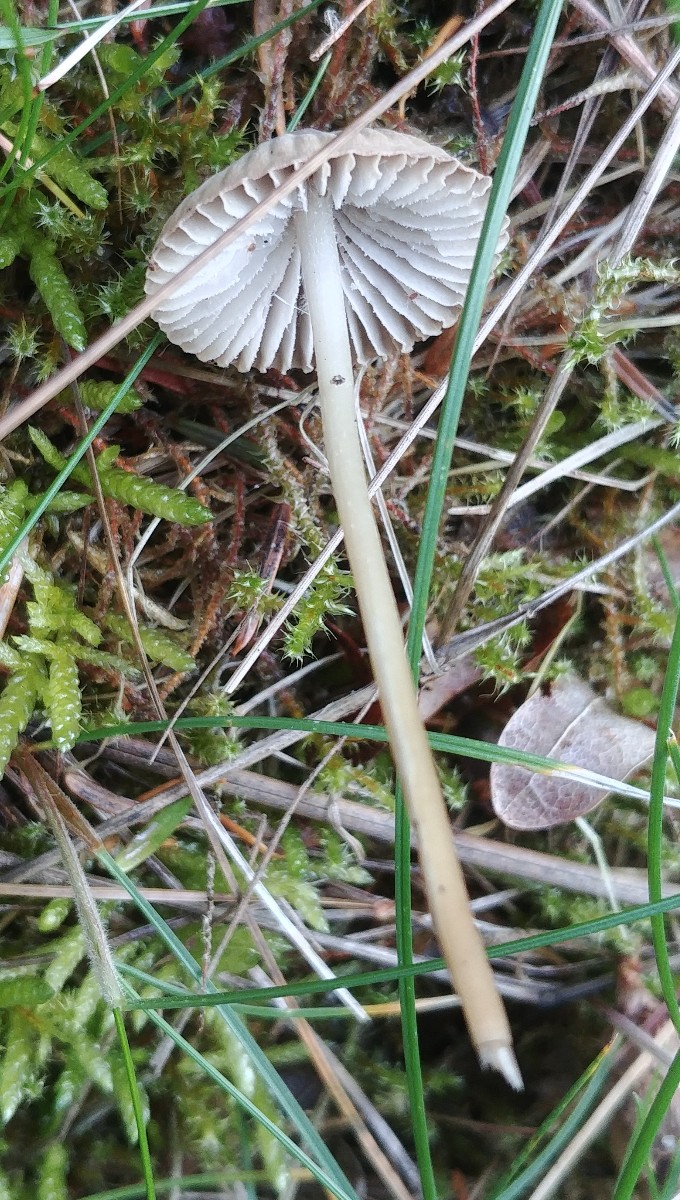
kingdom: Fungi
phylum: Basidiomycota
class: Agaricomycetes
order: Agaricales
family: Mycenaceae
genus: Mycena
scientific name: Mycena
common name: huesvamp
